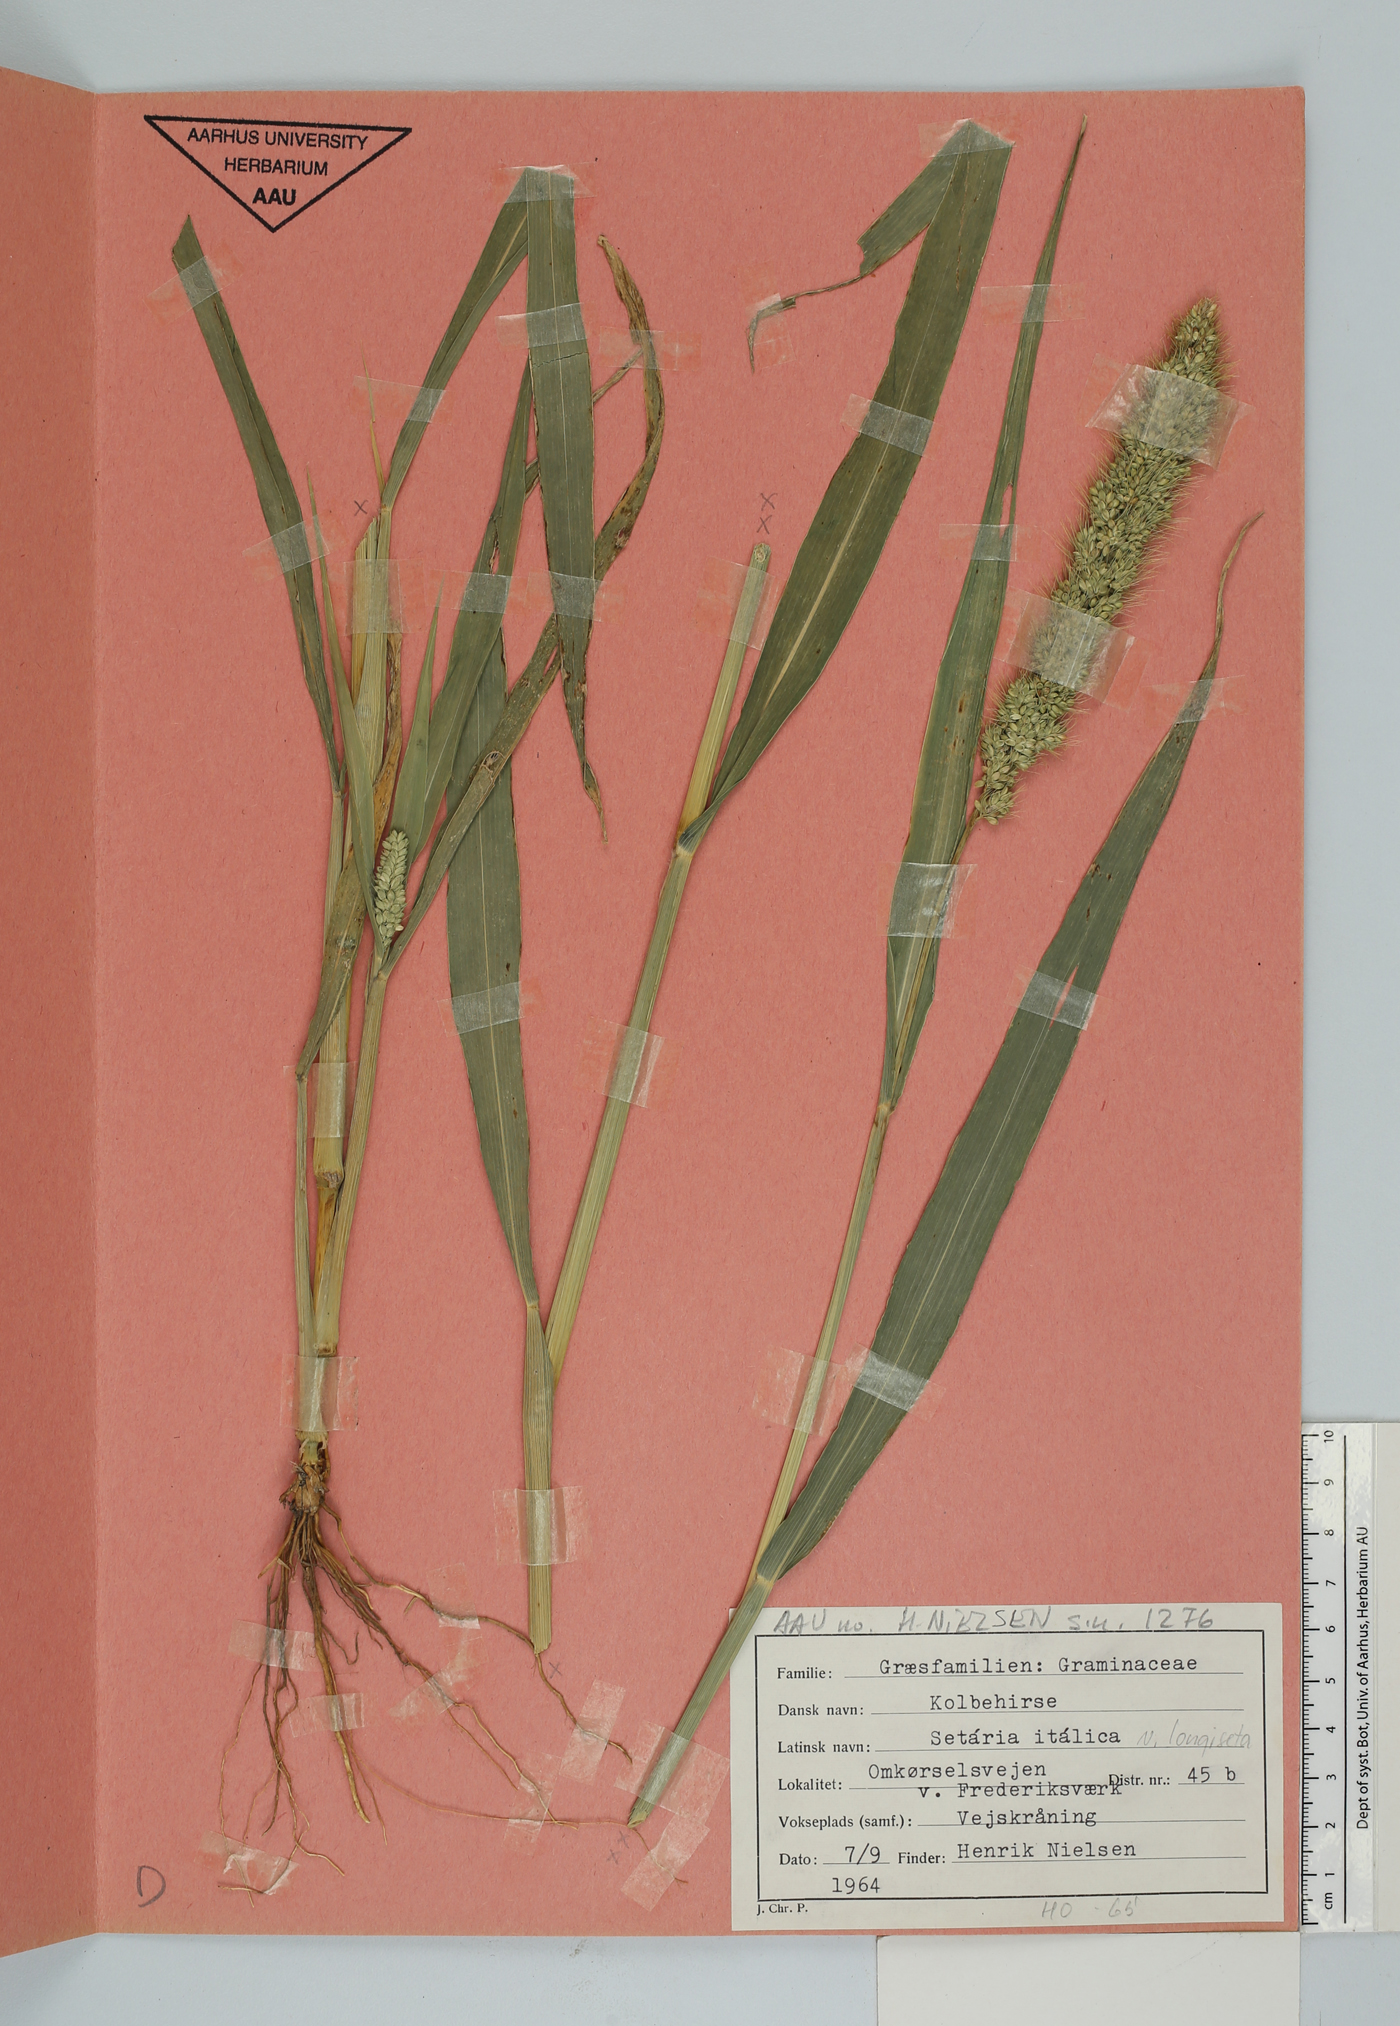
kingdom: Plantae
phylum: Tracheophyta
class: Liliopsida
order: Poales
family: Poaceae
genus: Setaria
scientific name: Setaria italica
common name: Foxtail bristle-grass
